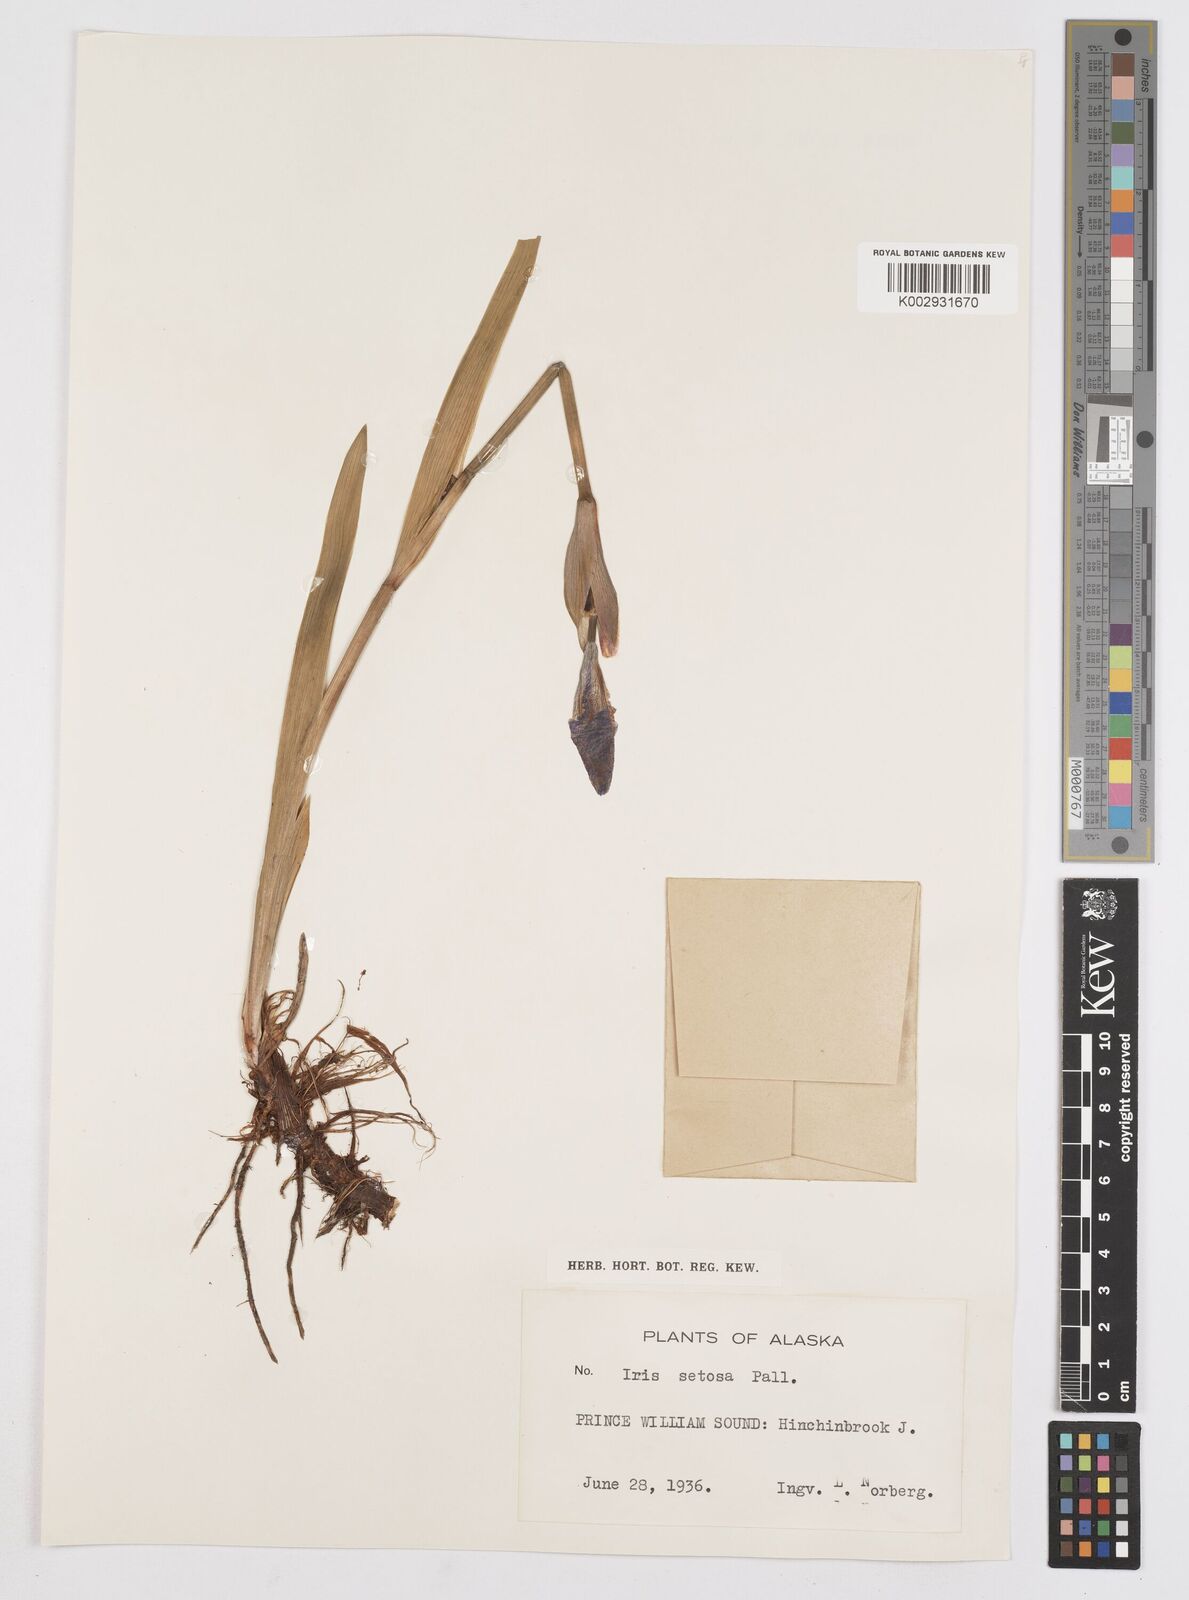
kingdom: Plantae
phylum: Tracheophyta
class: Liliopsida
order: Asparagales
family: Iridaceae
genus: Iris
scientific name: Iris setosa
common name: Arctic blue flag
